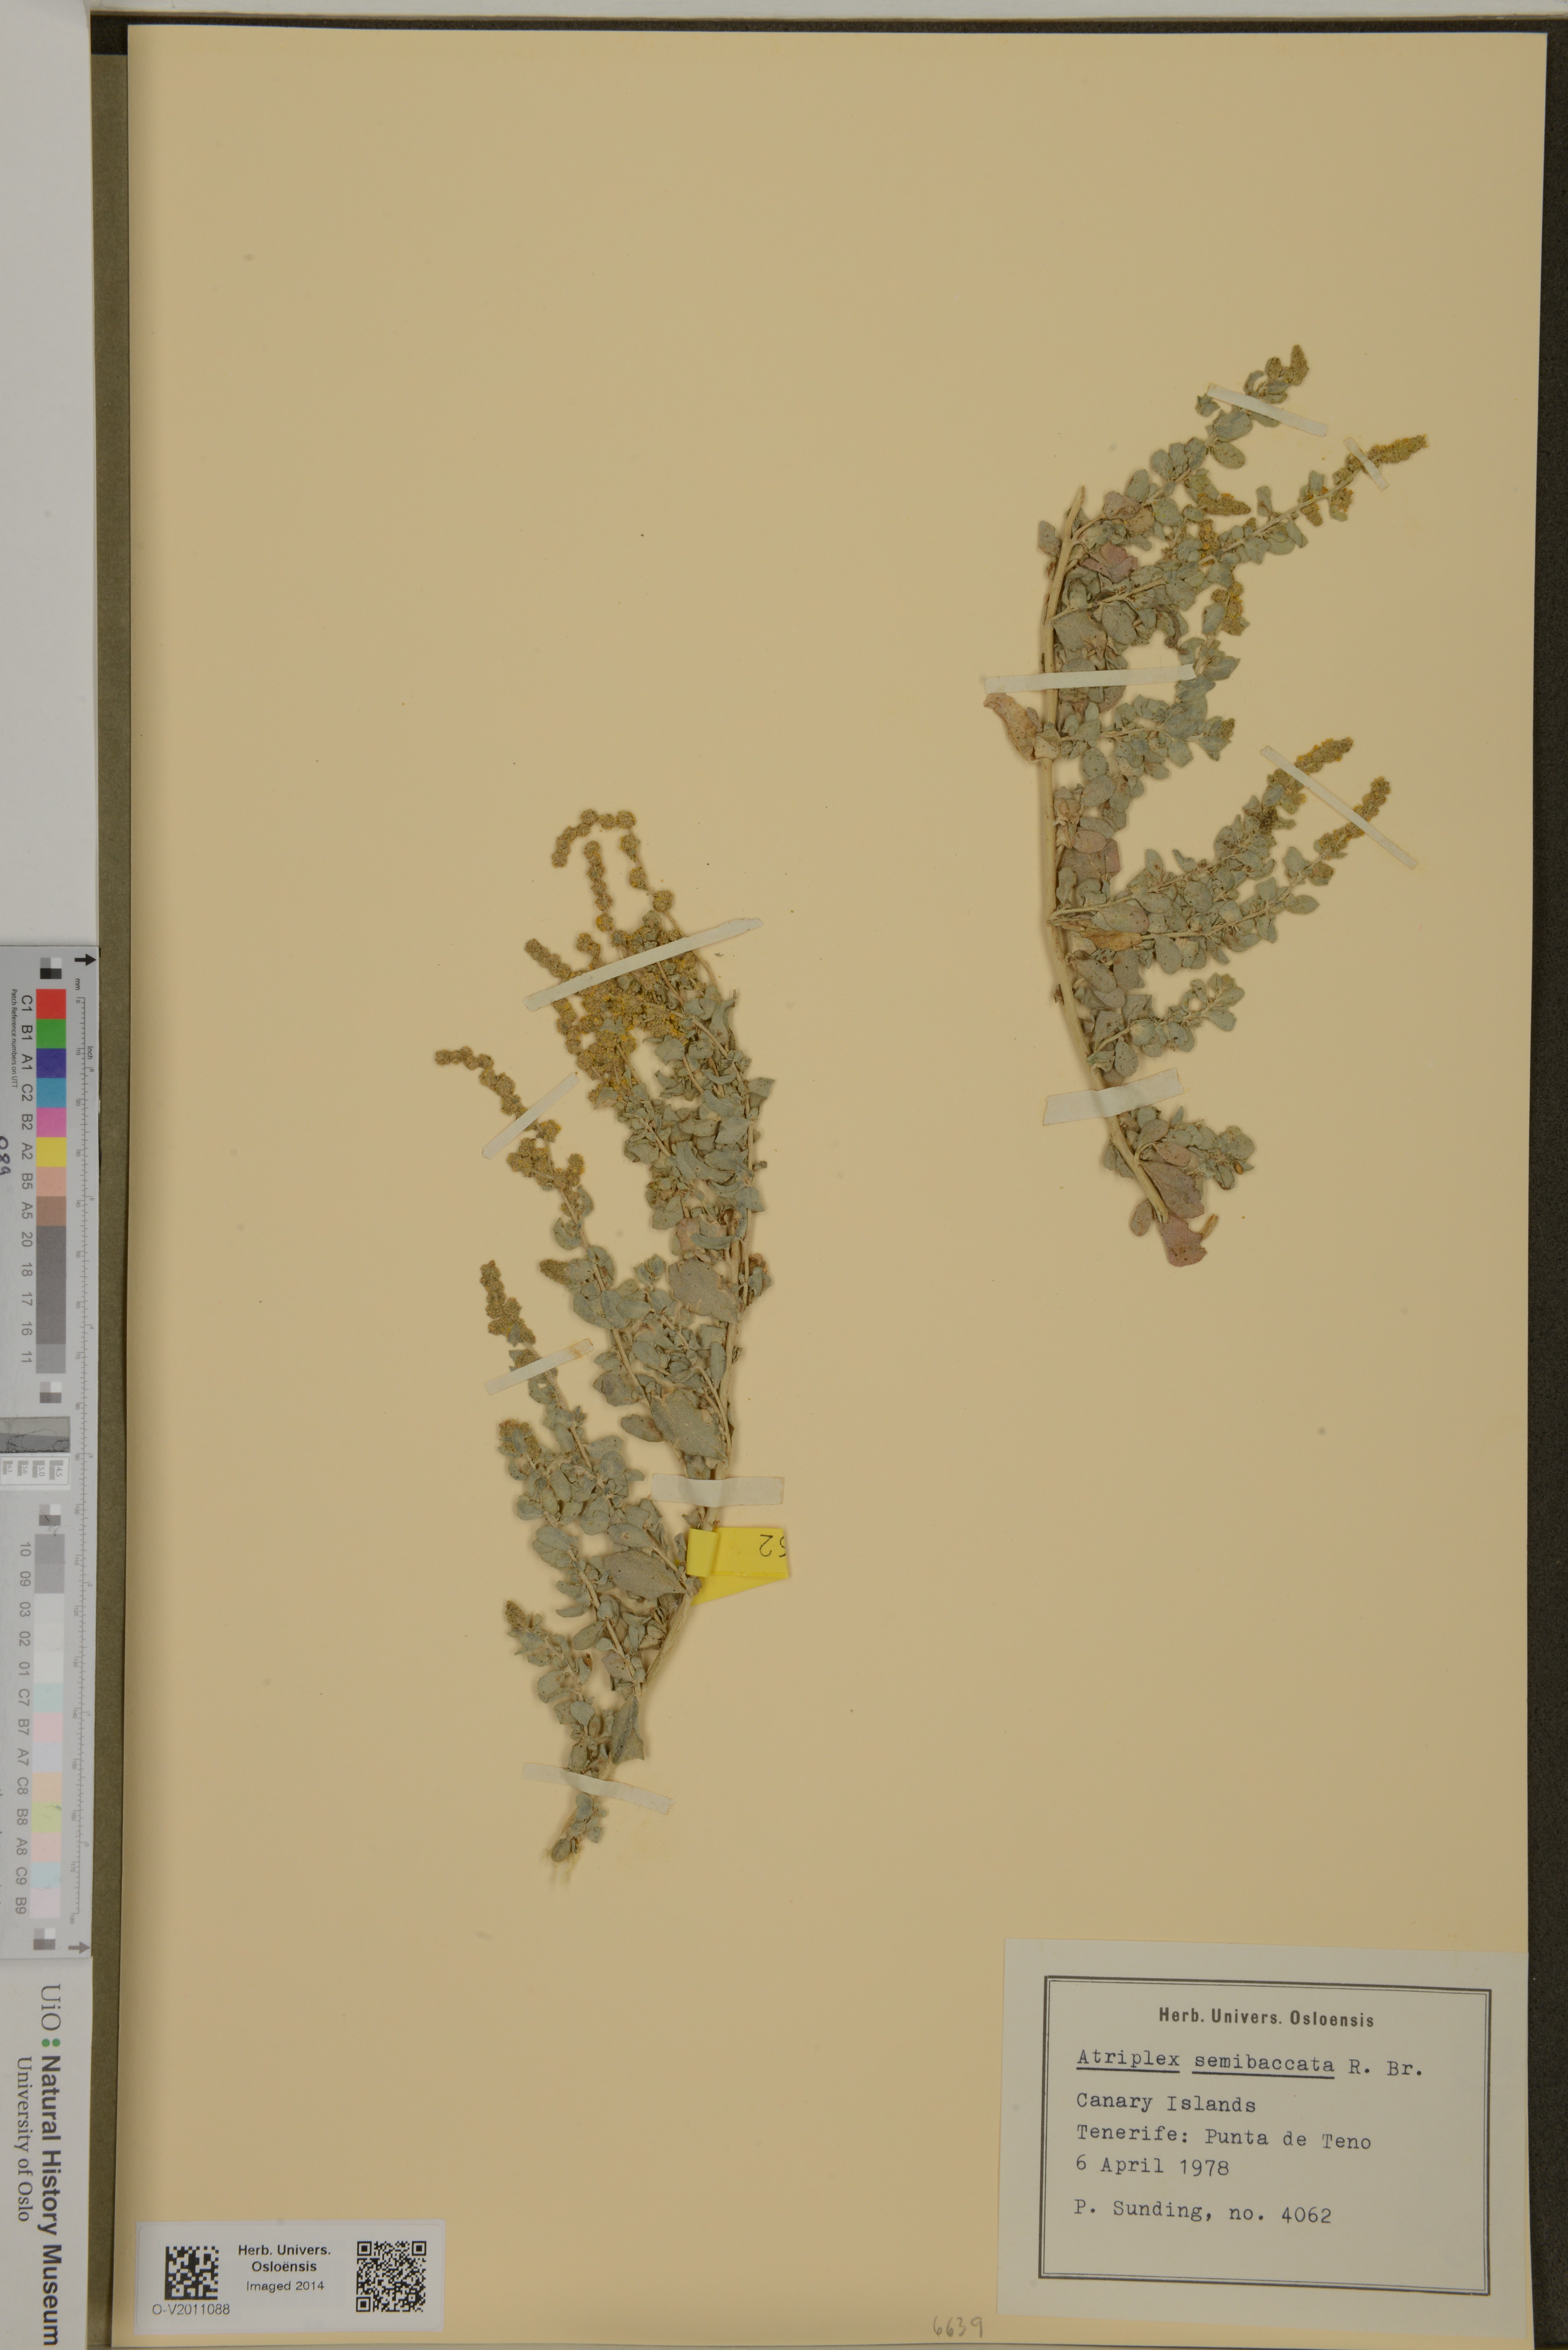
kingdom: Plantae
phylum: Tracheophyta
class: Magnoliopsida
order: Caryophyllales
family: Amaranthaceae
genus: Atriplex
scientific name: Atriplex semibaccata
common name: Australian saltbush
